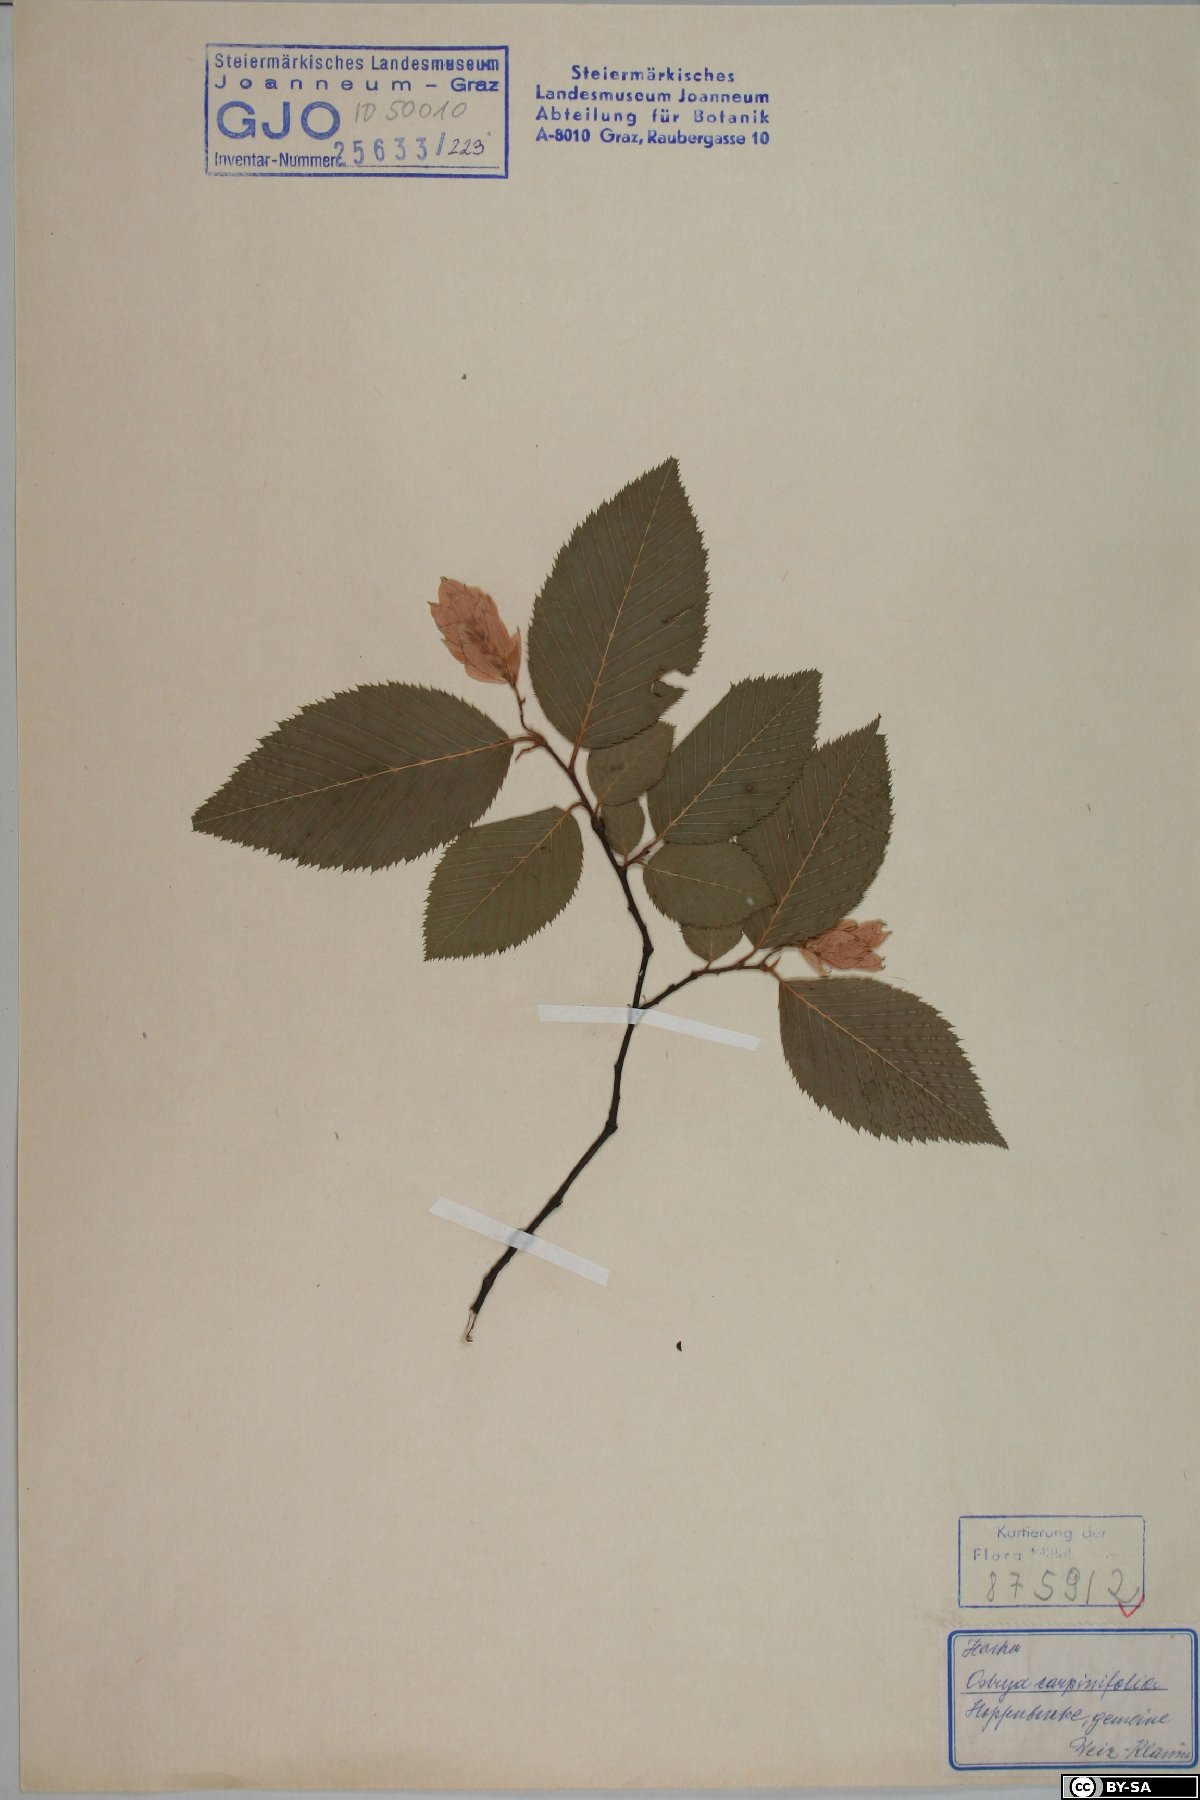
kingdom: Plantae
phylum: Tracheophyta
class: Magnoliopsida
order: Fagales
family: Betulaceae
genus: Ostrya
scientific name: Ostrya carpinifolia
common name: European hop-hornbeam
